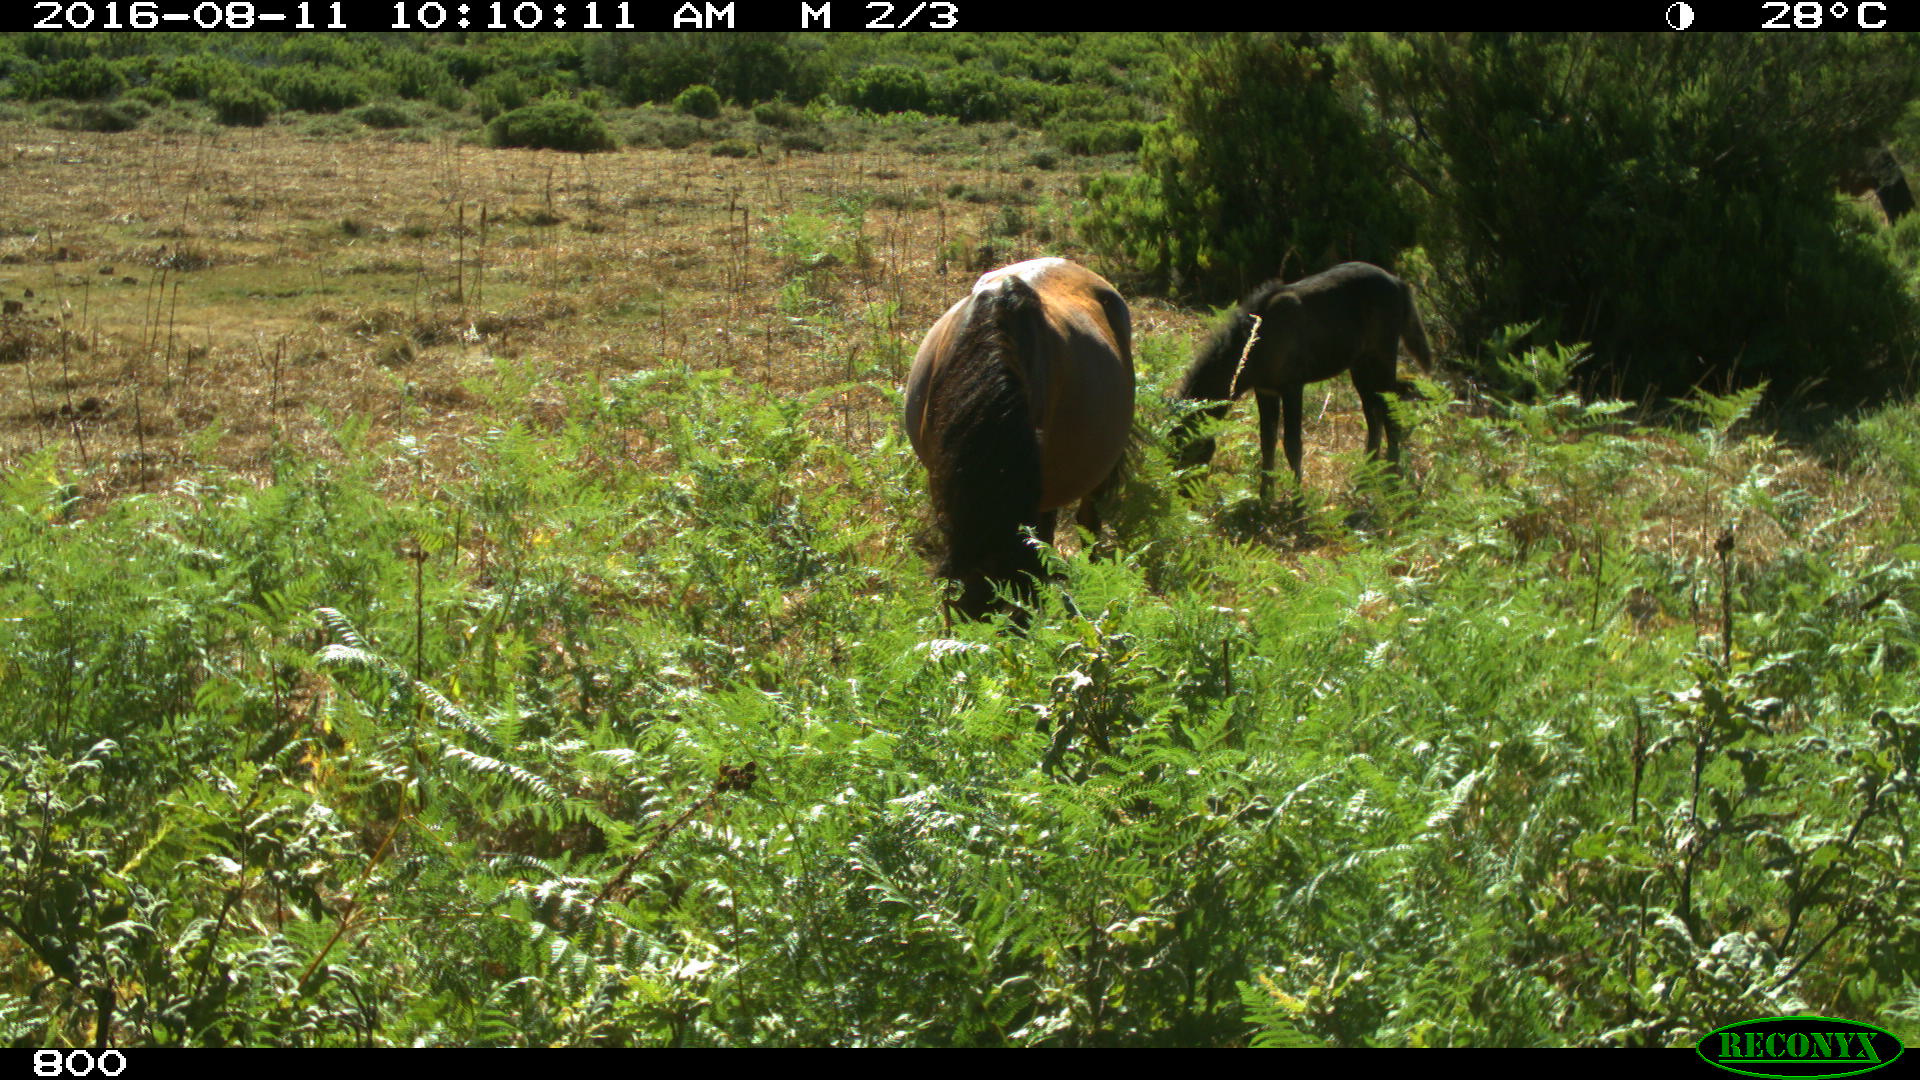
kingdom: Animalia
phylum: Chordata
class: Mammalia
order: Perissodactyla
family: Equidae
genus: Equus
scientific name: Equus caballus
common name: Horse
